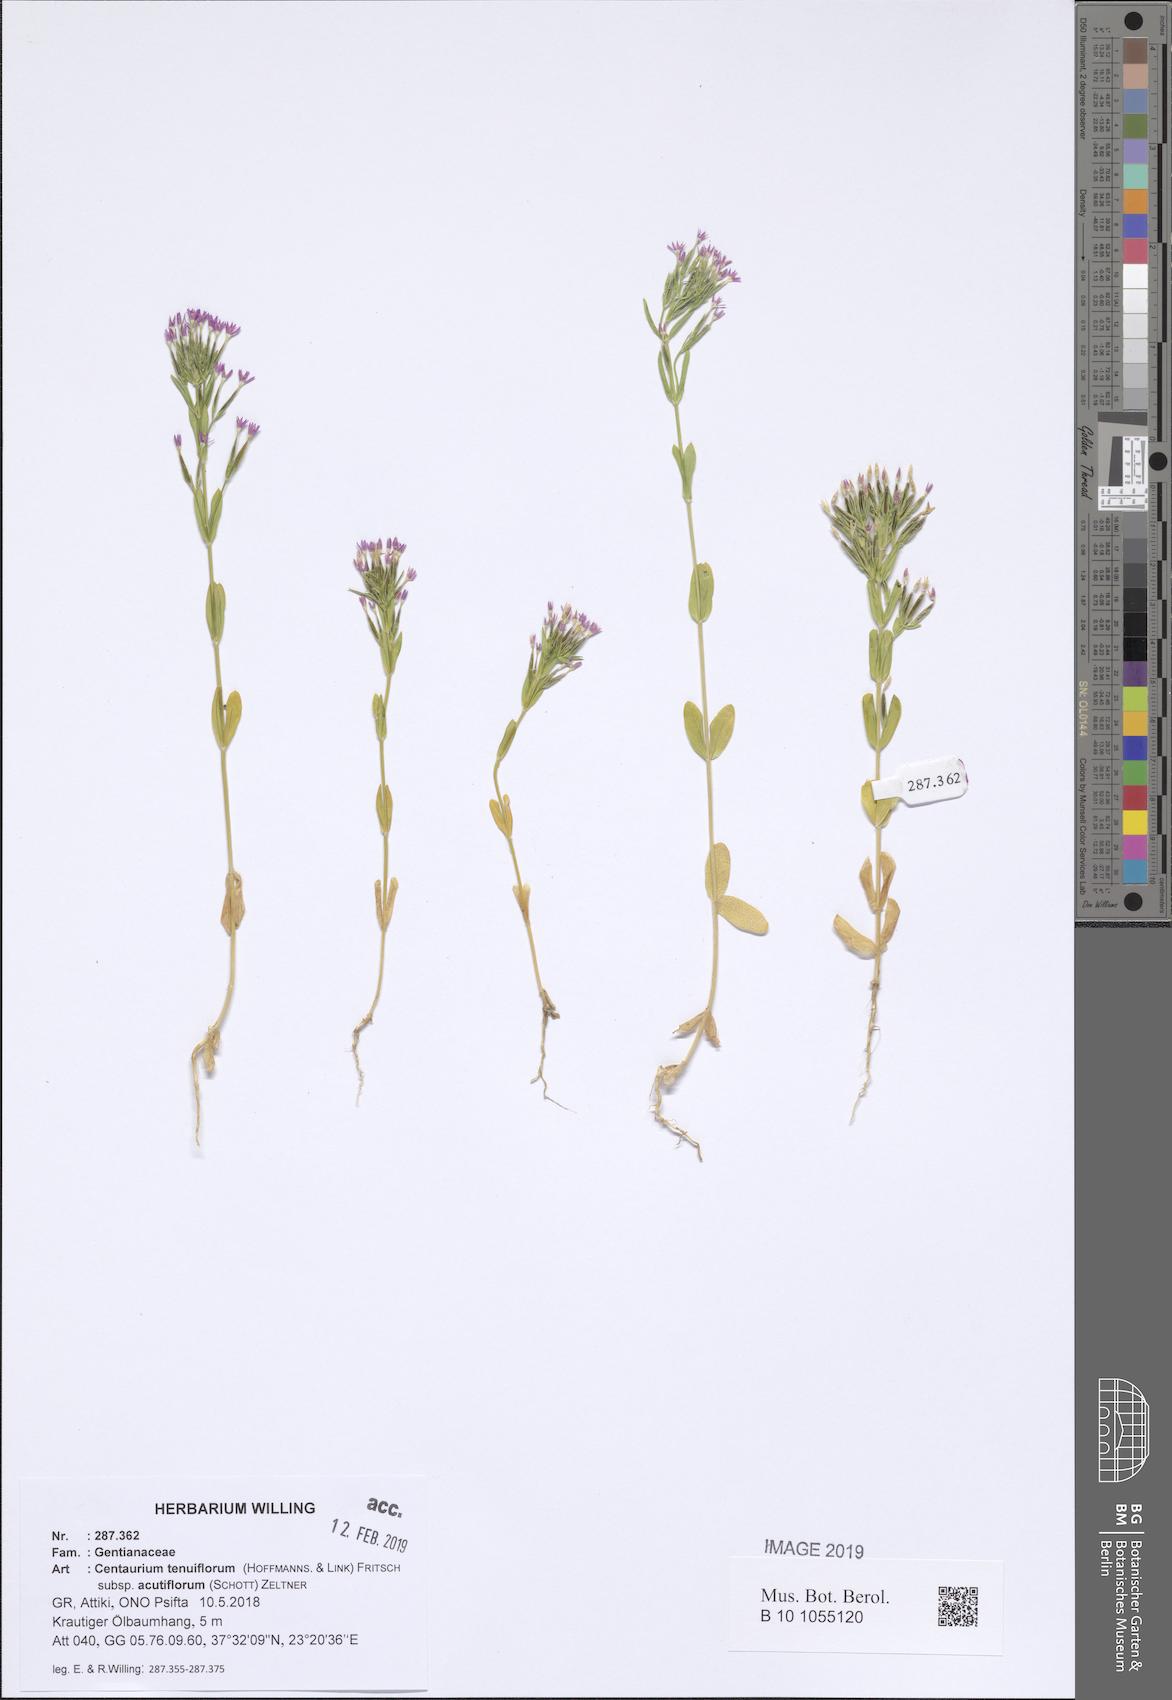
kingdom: Plantae
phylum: Tracheophyta
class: Magnoliopsida
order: Gentianales
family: Gentianaceae
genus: Centaurium
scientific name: Centaurium tenuiflorum
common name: Slender centaury
